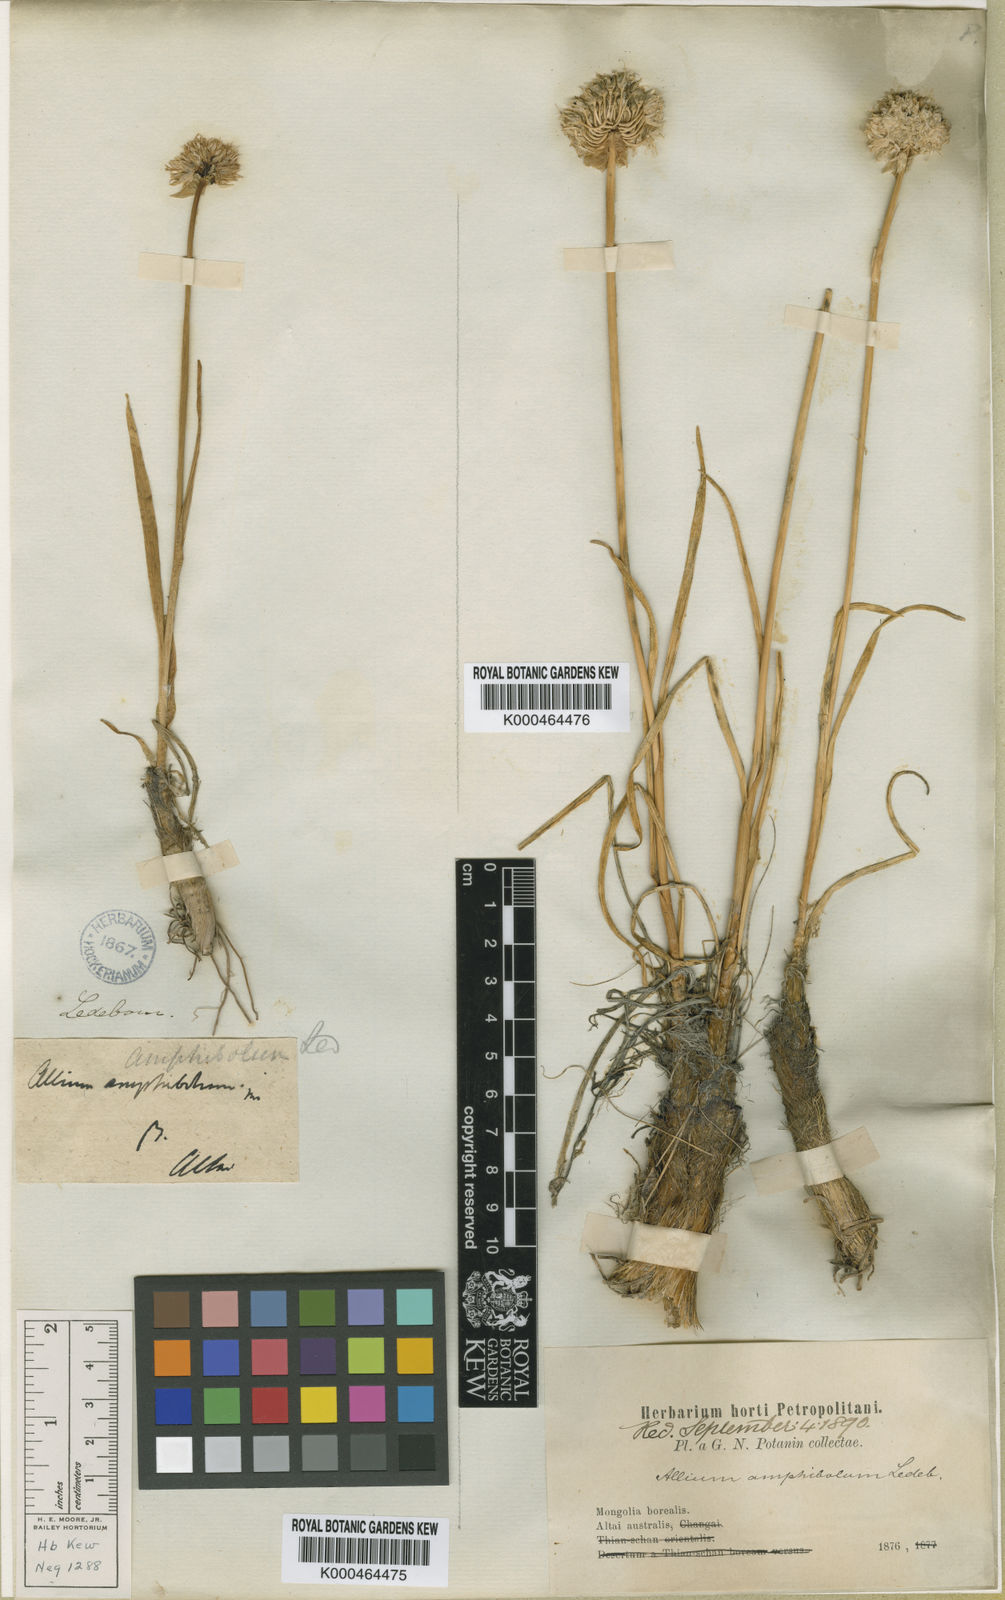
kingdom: Plantae
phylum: Tracheophyta
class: Liliopsida
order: Asparagales
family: Amaryllidaceae
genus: Allium
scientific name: Allium amphibolum
